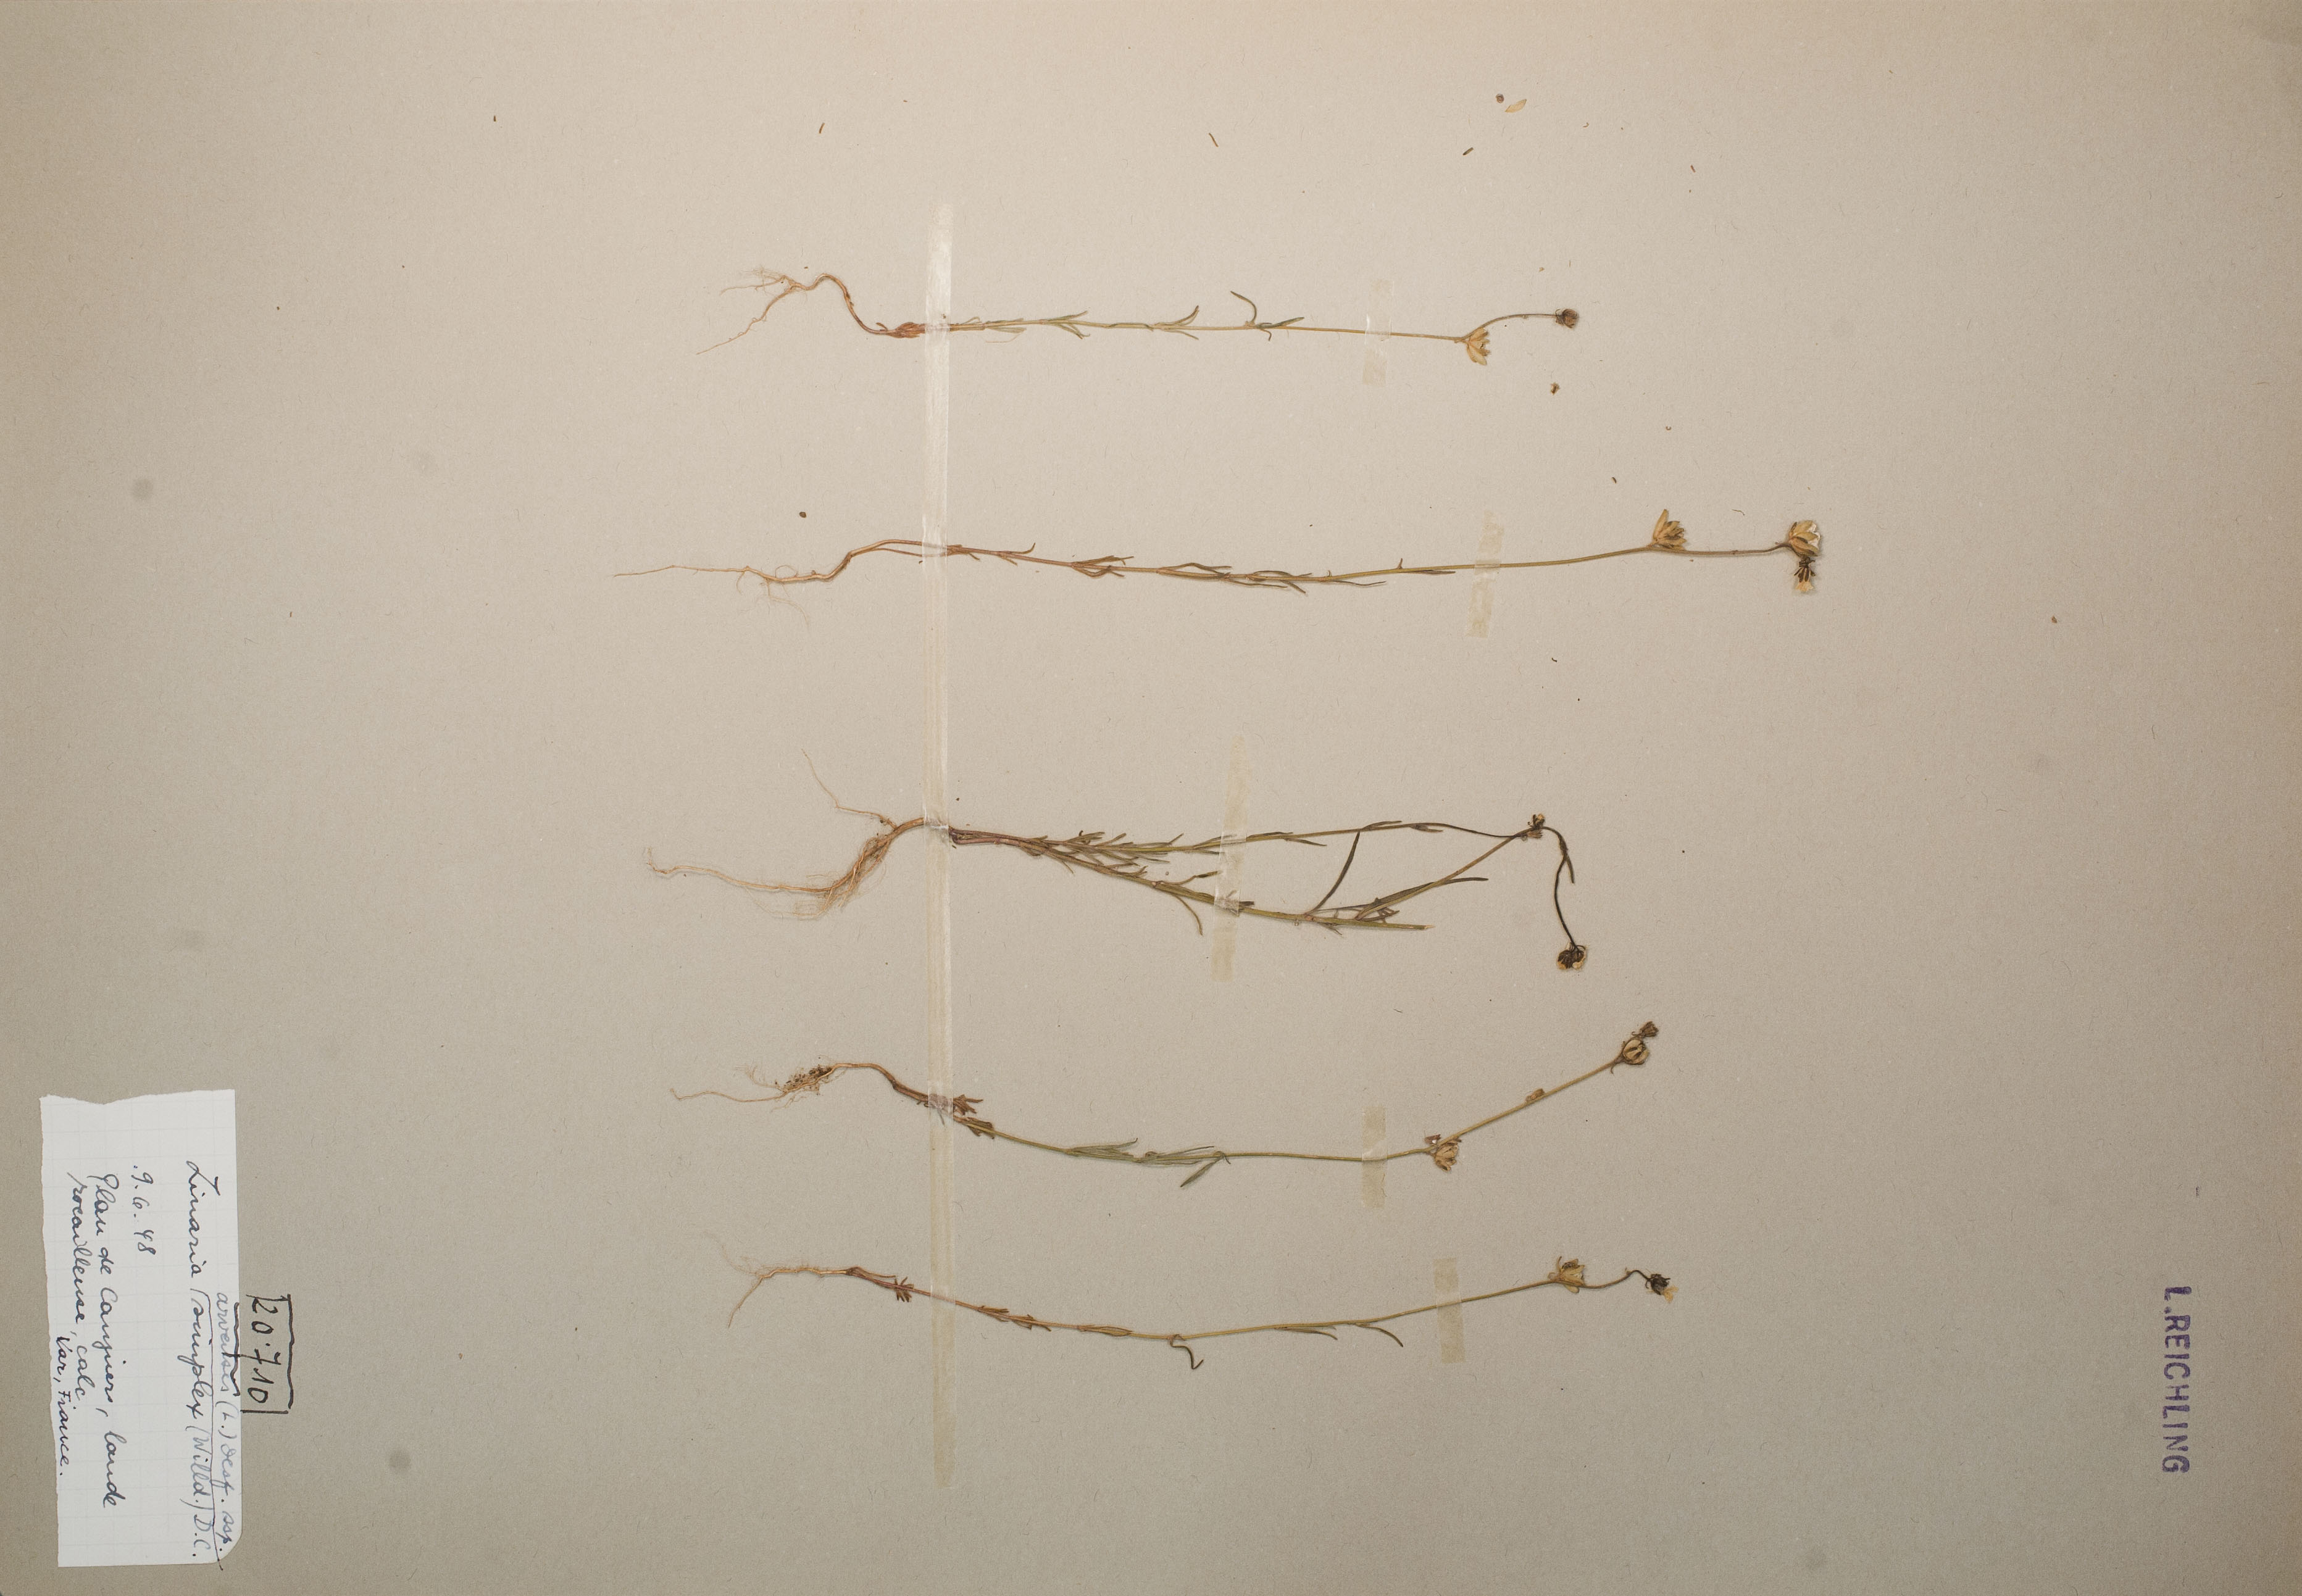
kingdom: Plantae
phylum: Tracheophyta
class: Magnoliopsida
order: Lamiales
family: Plantaginaceae
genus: Linaria
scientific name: Linaria simplex
